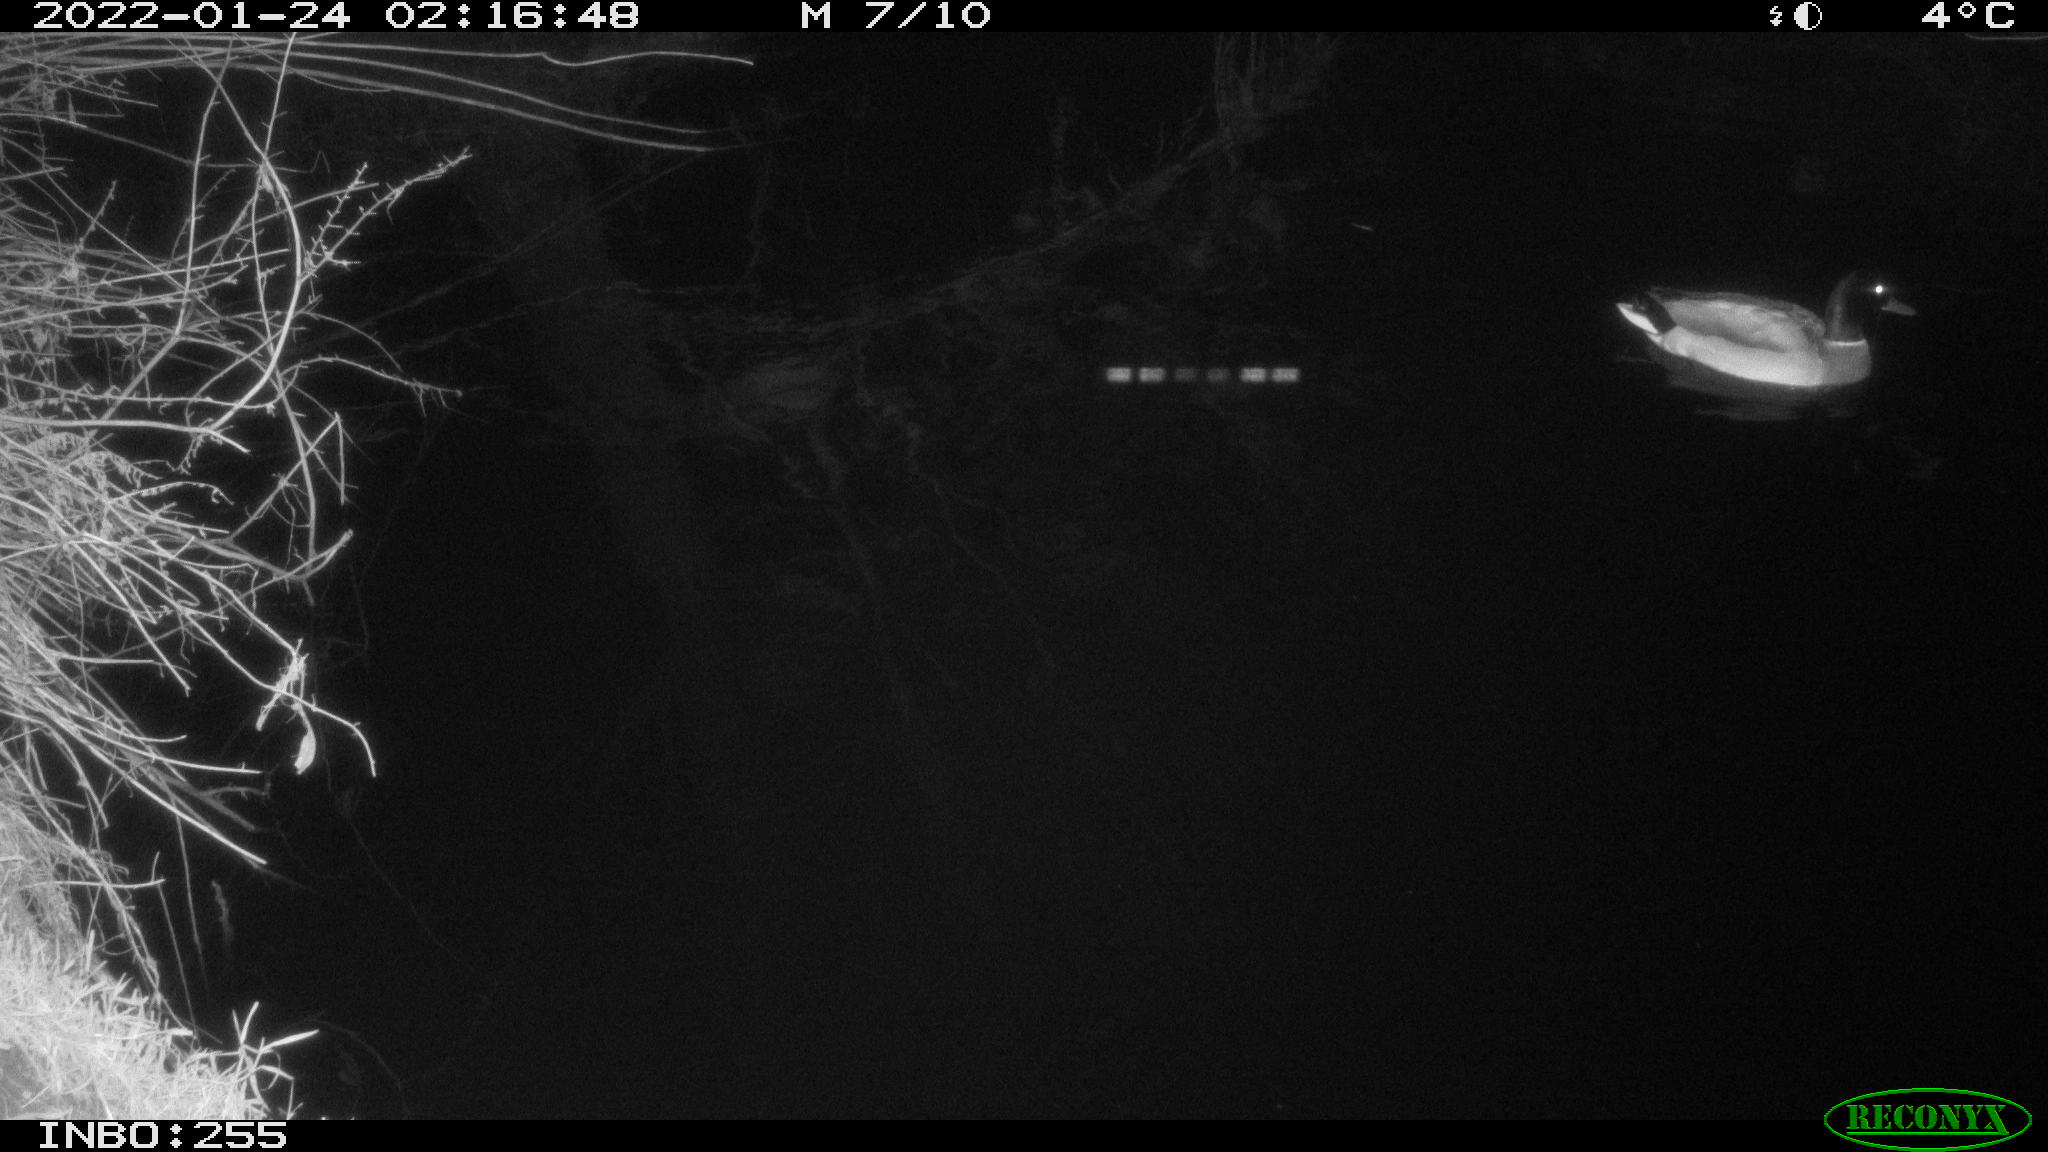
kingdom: Animalia
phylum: Chordata
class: Aves
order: Anseriformes
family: Anatidae
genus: Anas
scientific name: Anas
